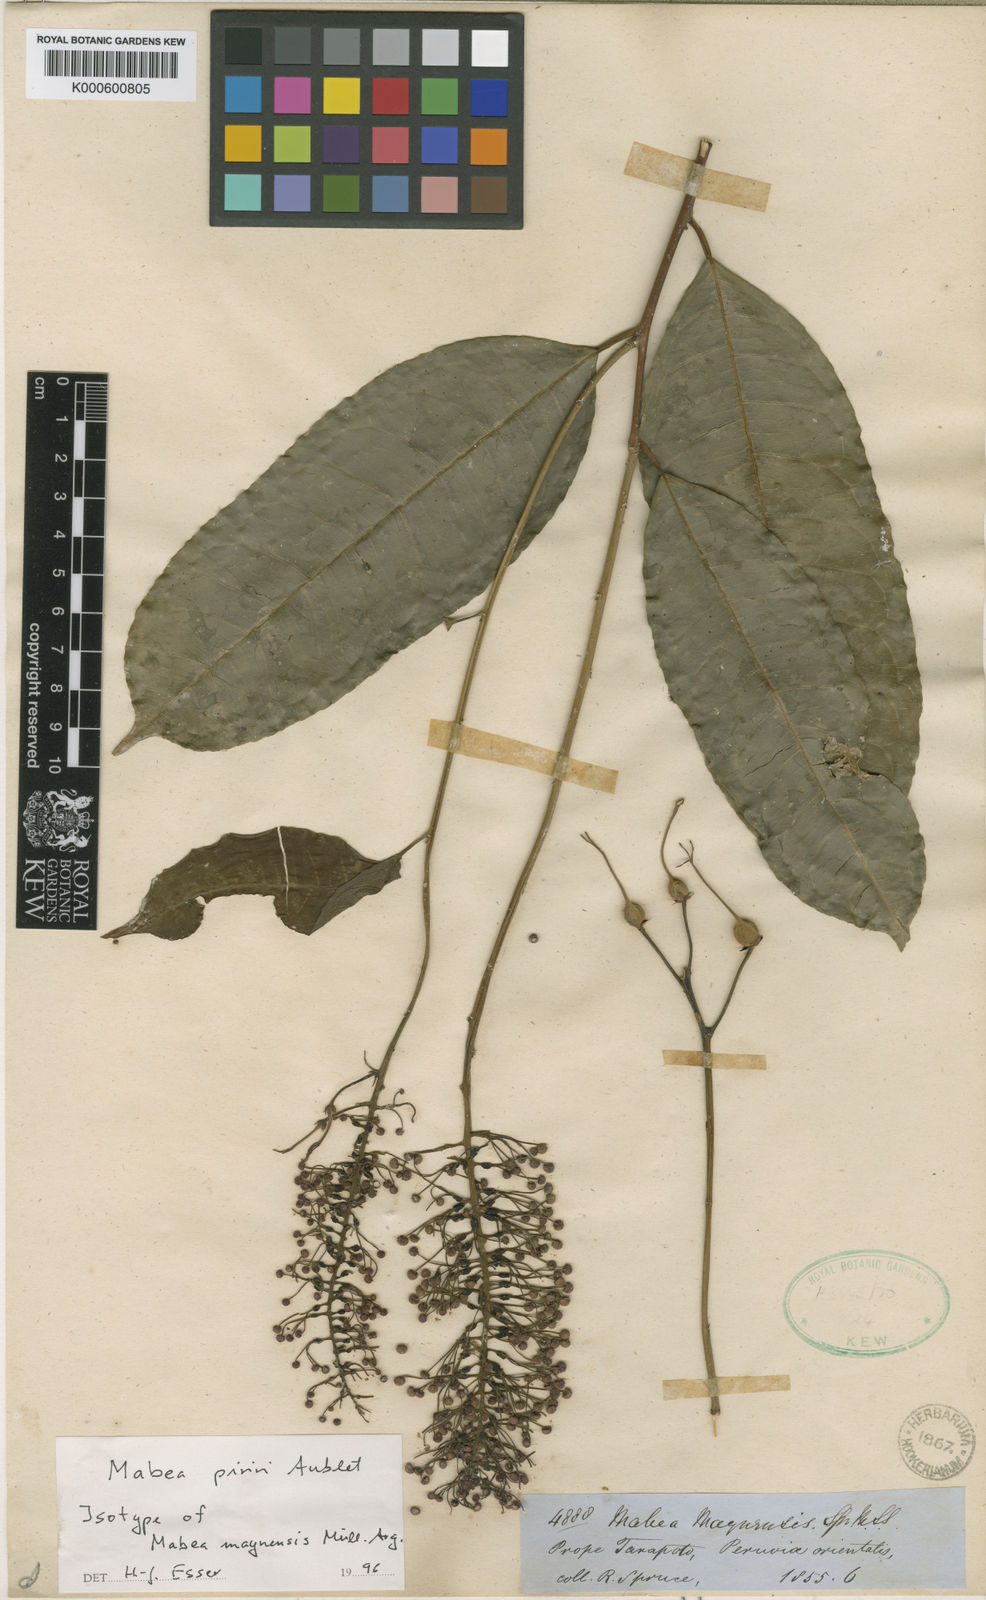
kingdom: Plantae
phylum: Tracheophyta
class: Magnoliopsida
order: Malpighiales
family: Euphorbiaceae
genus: Mabea
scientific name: Mabea piriri
